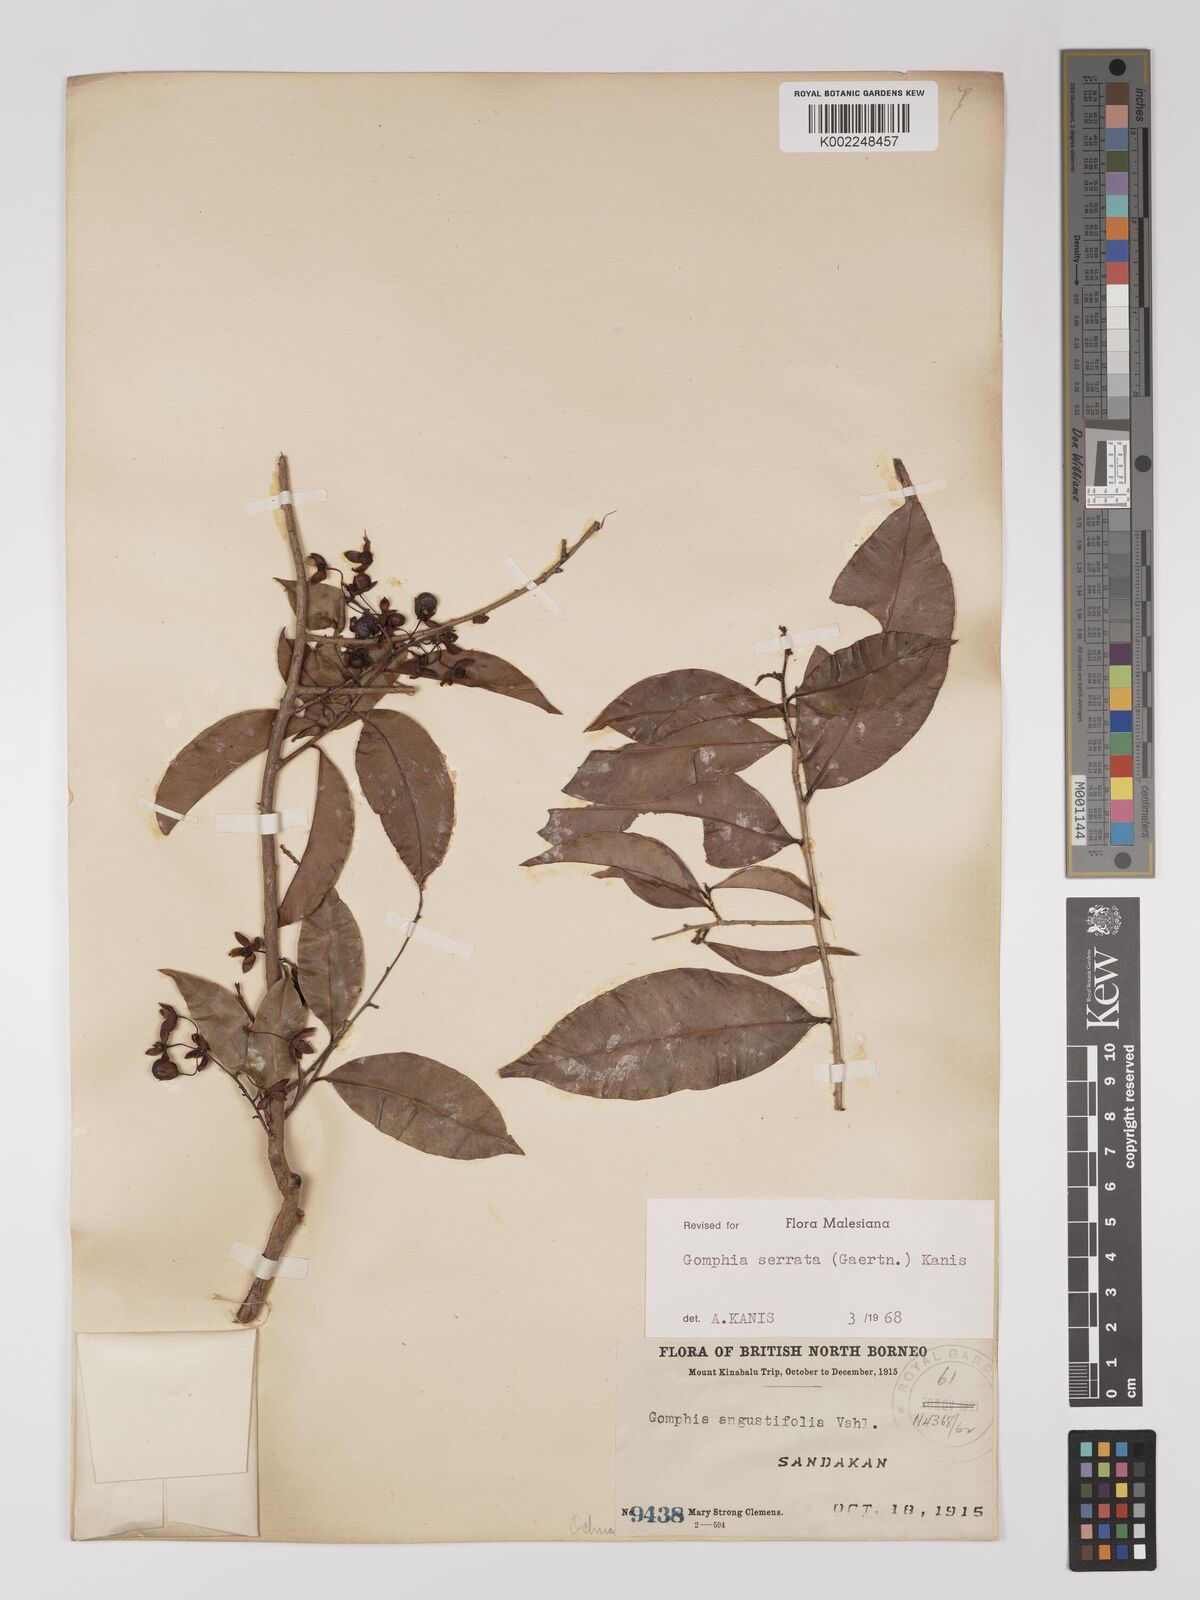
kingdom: Plantae
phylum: Tracheophyta
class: Magnoliopsida
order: Malpighiales
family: Ochnaceae
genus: Gomphia
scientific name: Gomphia serrata
